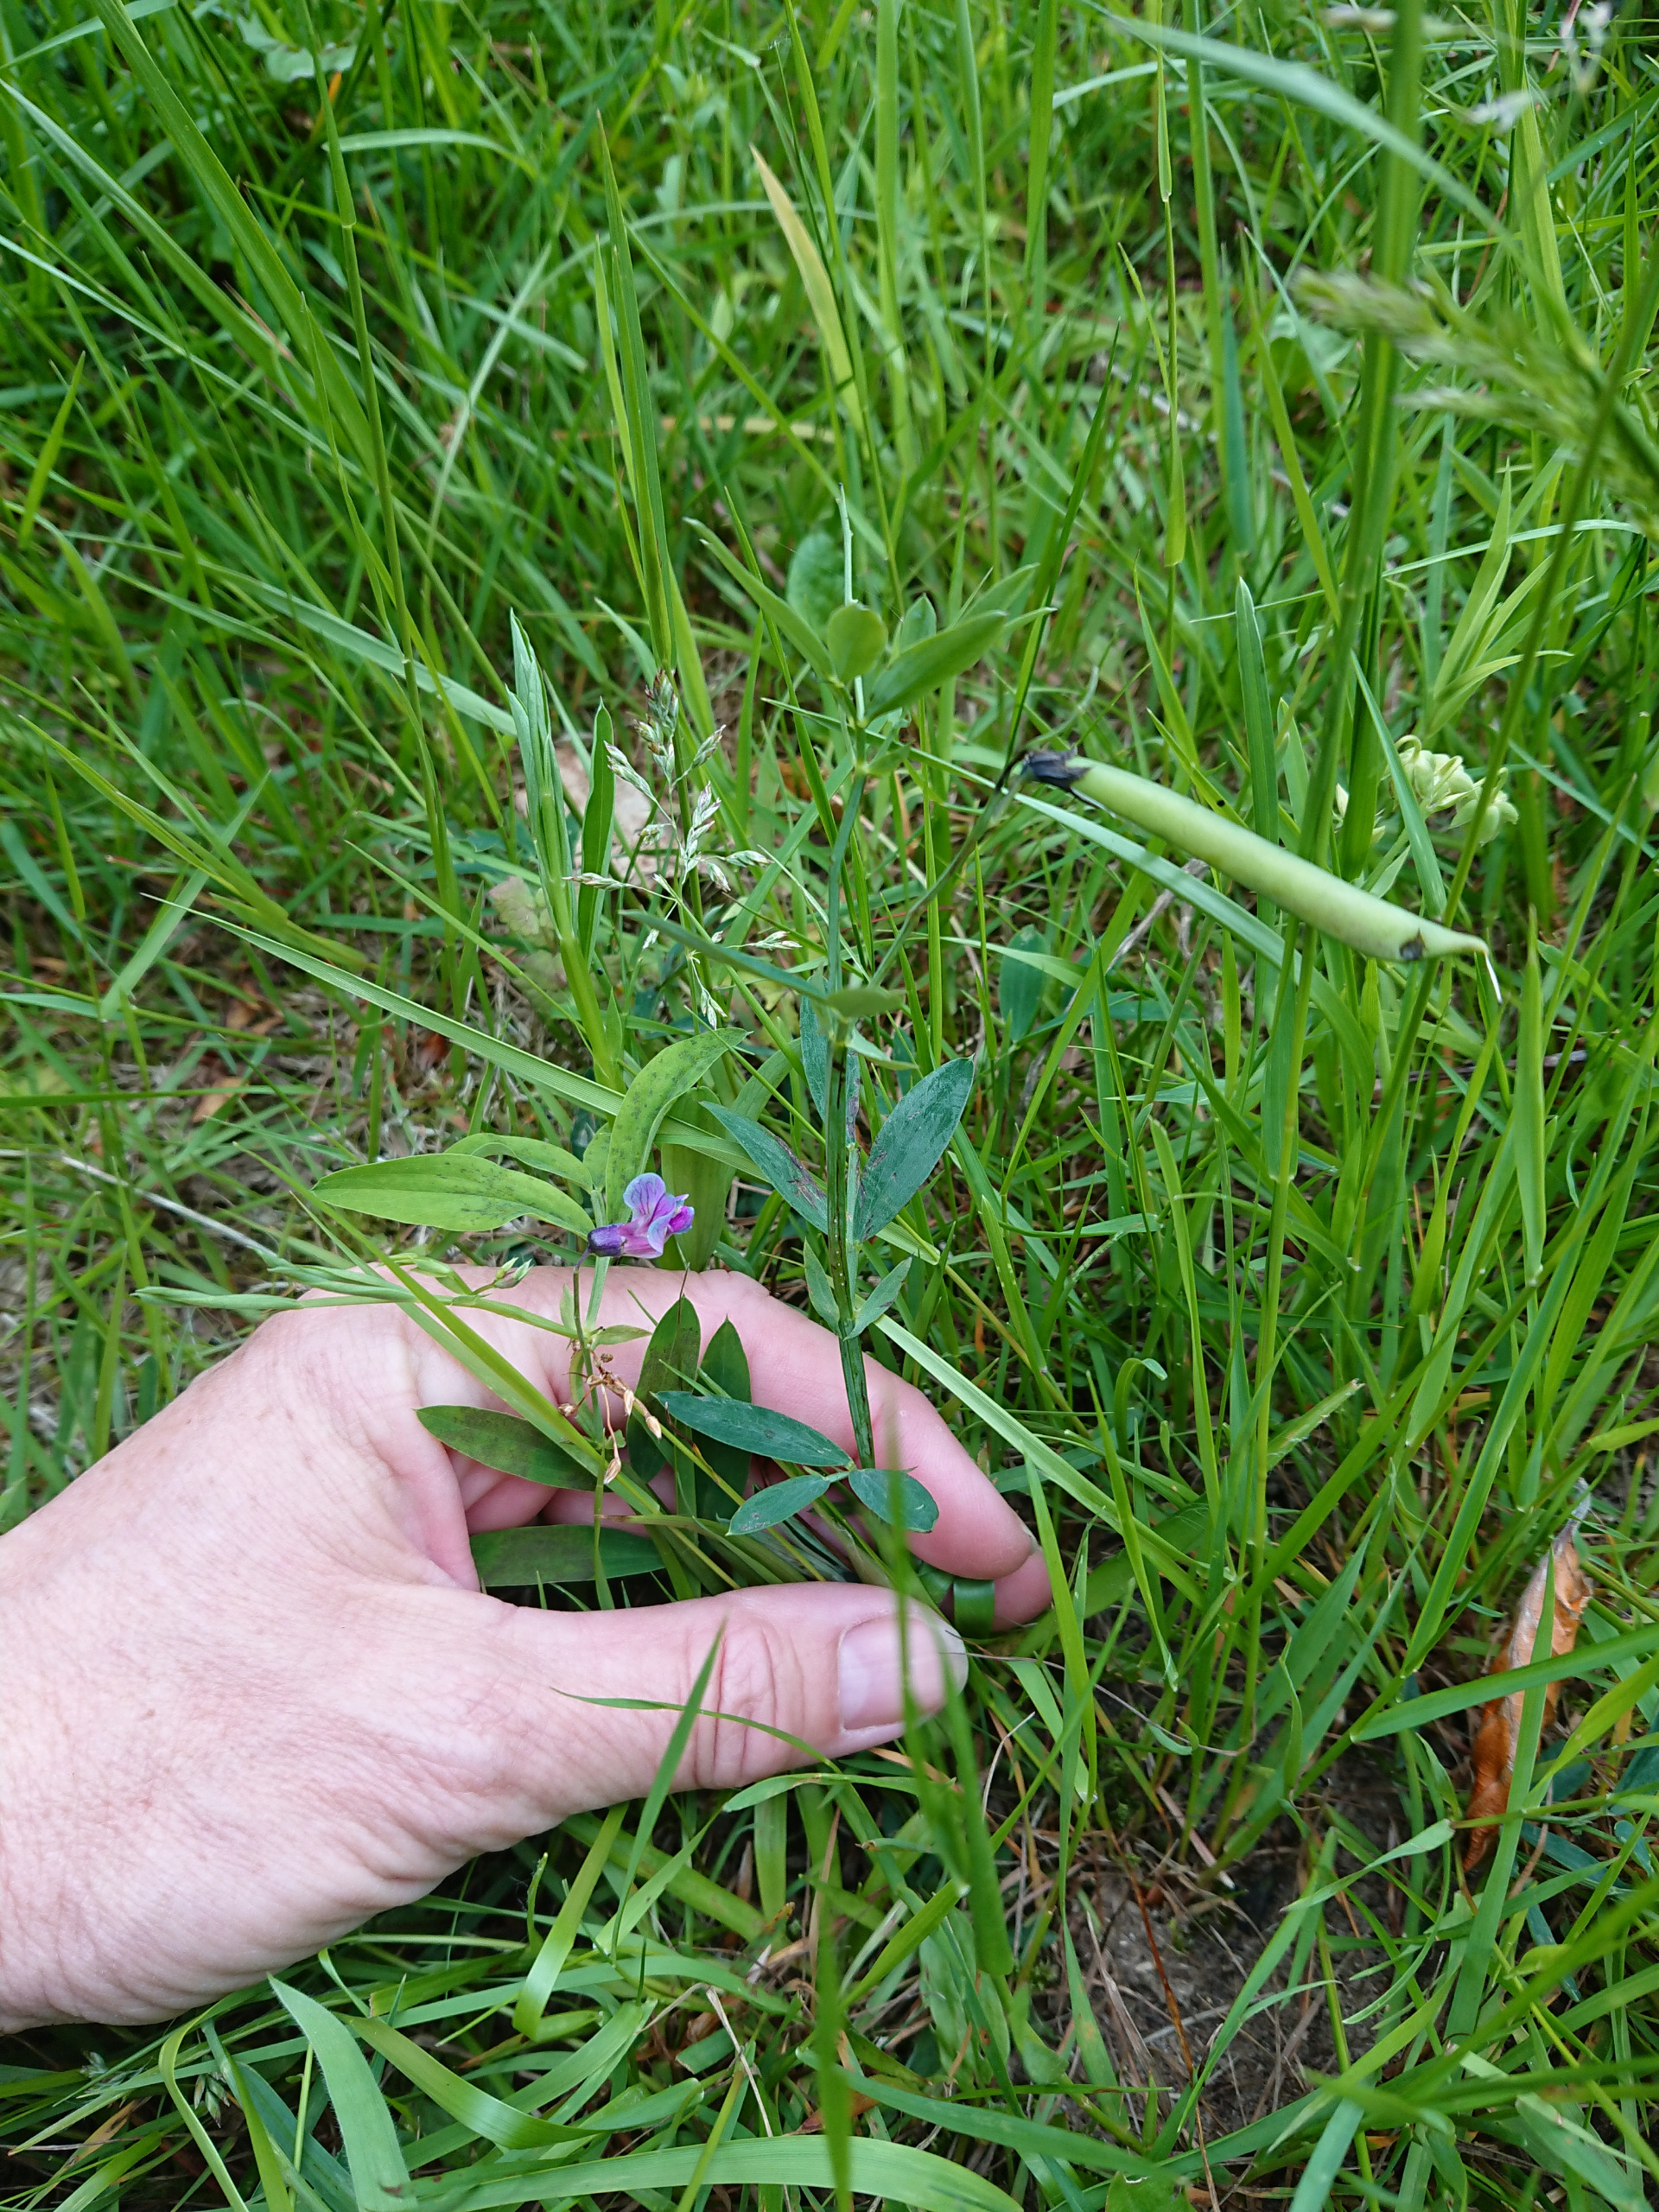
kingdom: Plantae
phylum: Tracheophyta
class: Magnoliopsida
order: Fabales
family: Fabaceae
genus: Lathyrus
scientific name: Lathyrus linifolius
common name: Krat-fladbælg
